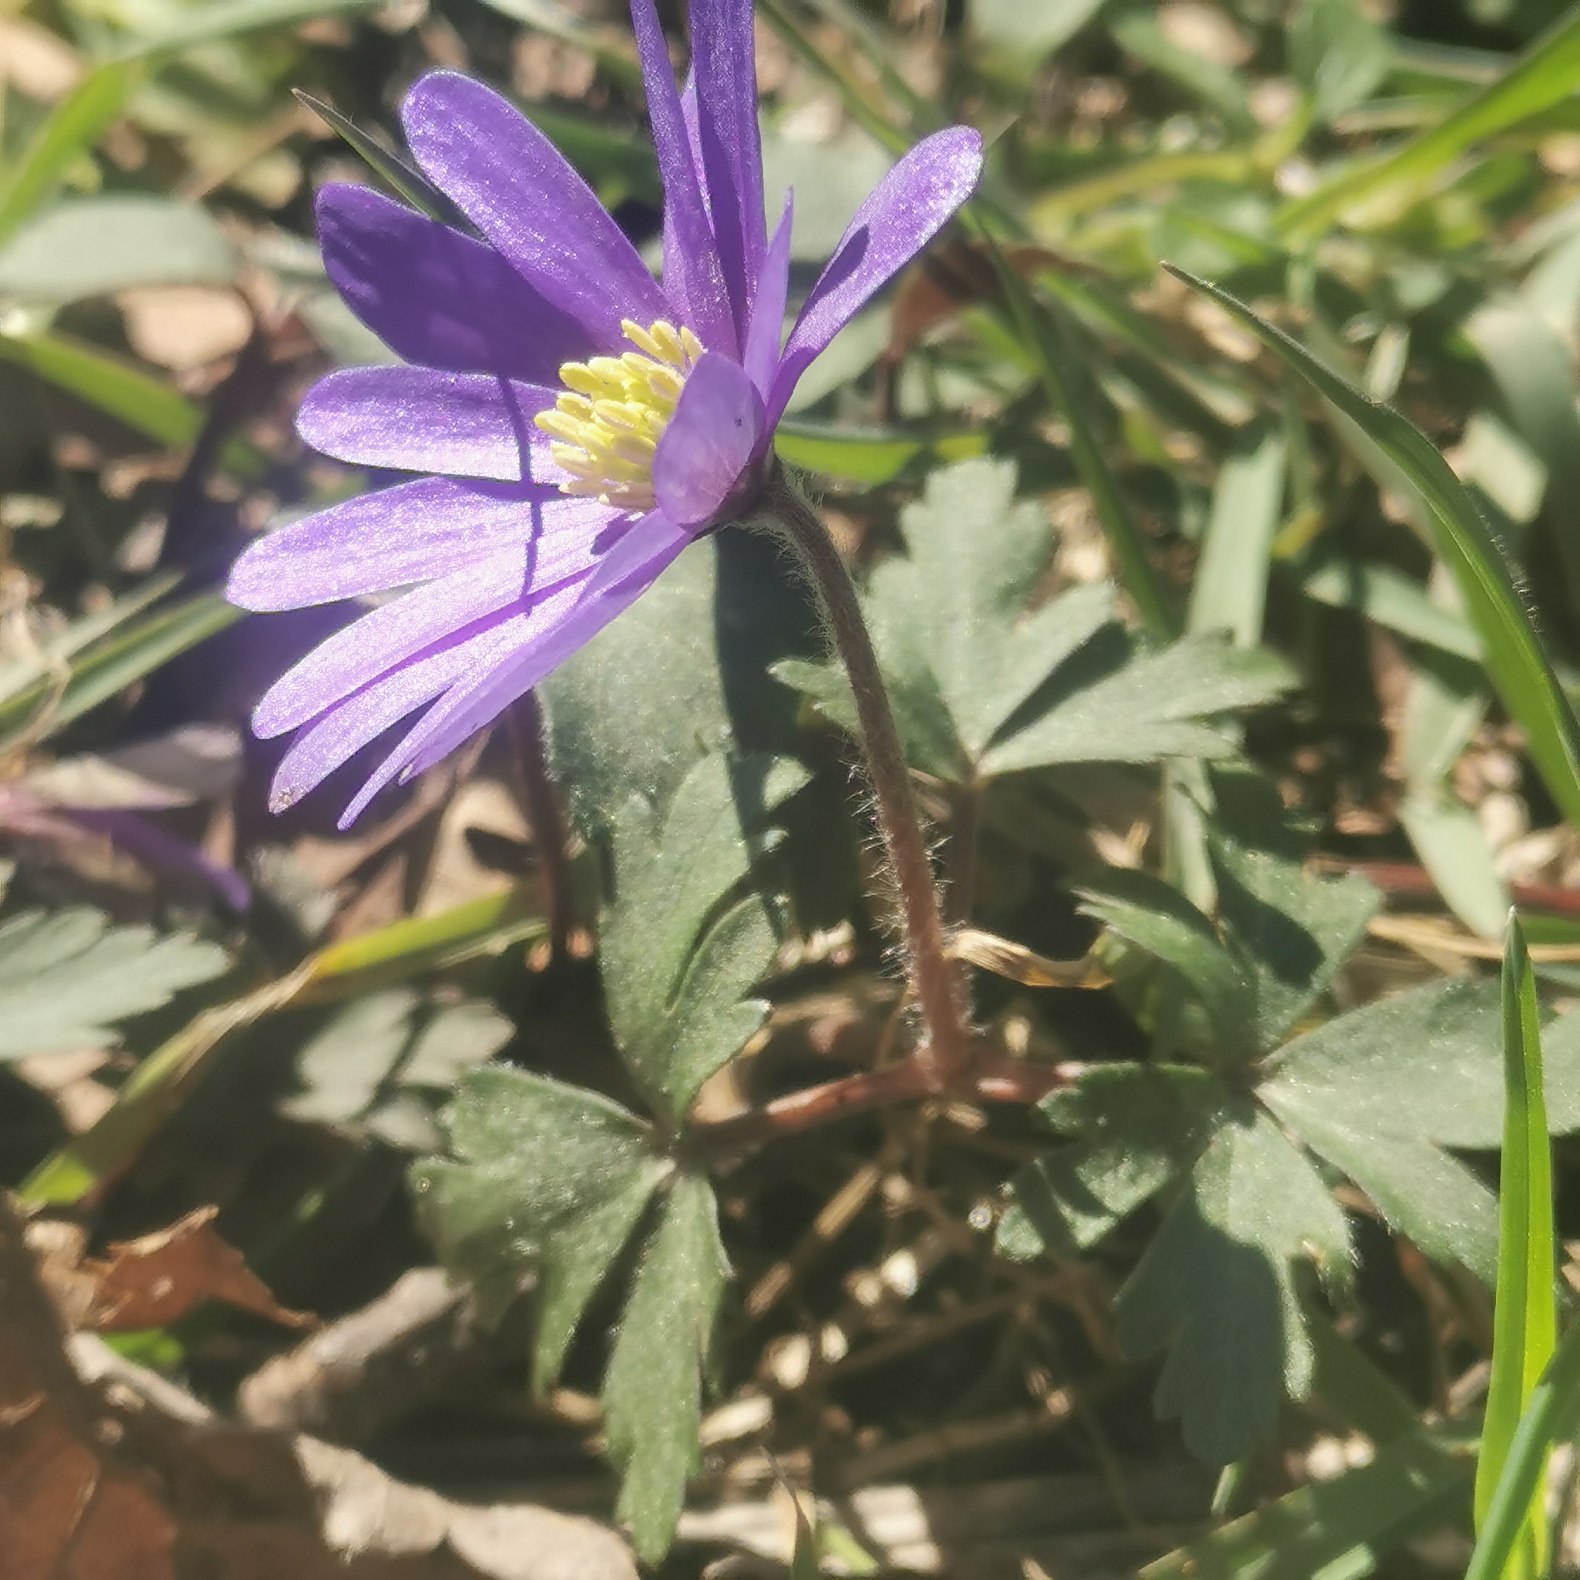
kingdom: Plantae
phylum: Tracheophyta
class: Magnoliopsida
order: Ranunculales
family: Ranunculaceae
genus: Anemone
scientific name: Anemone blanda
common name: Balkan-anemone
